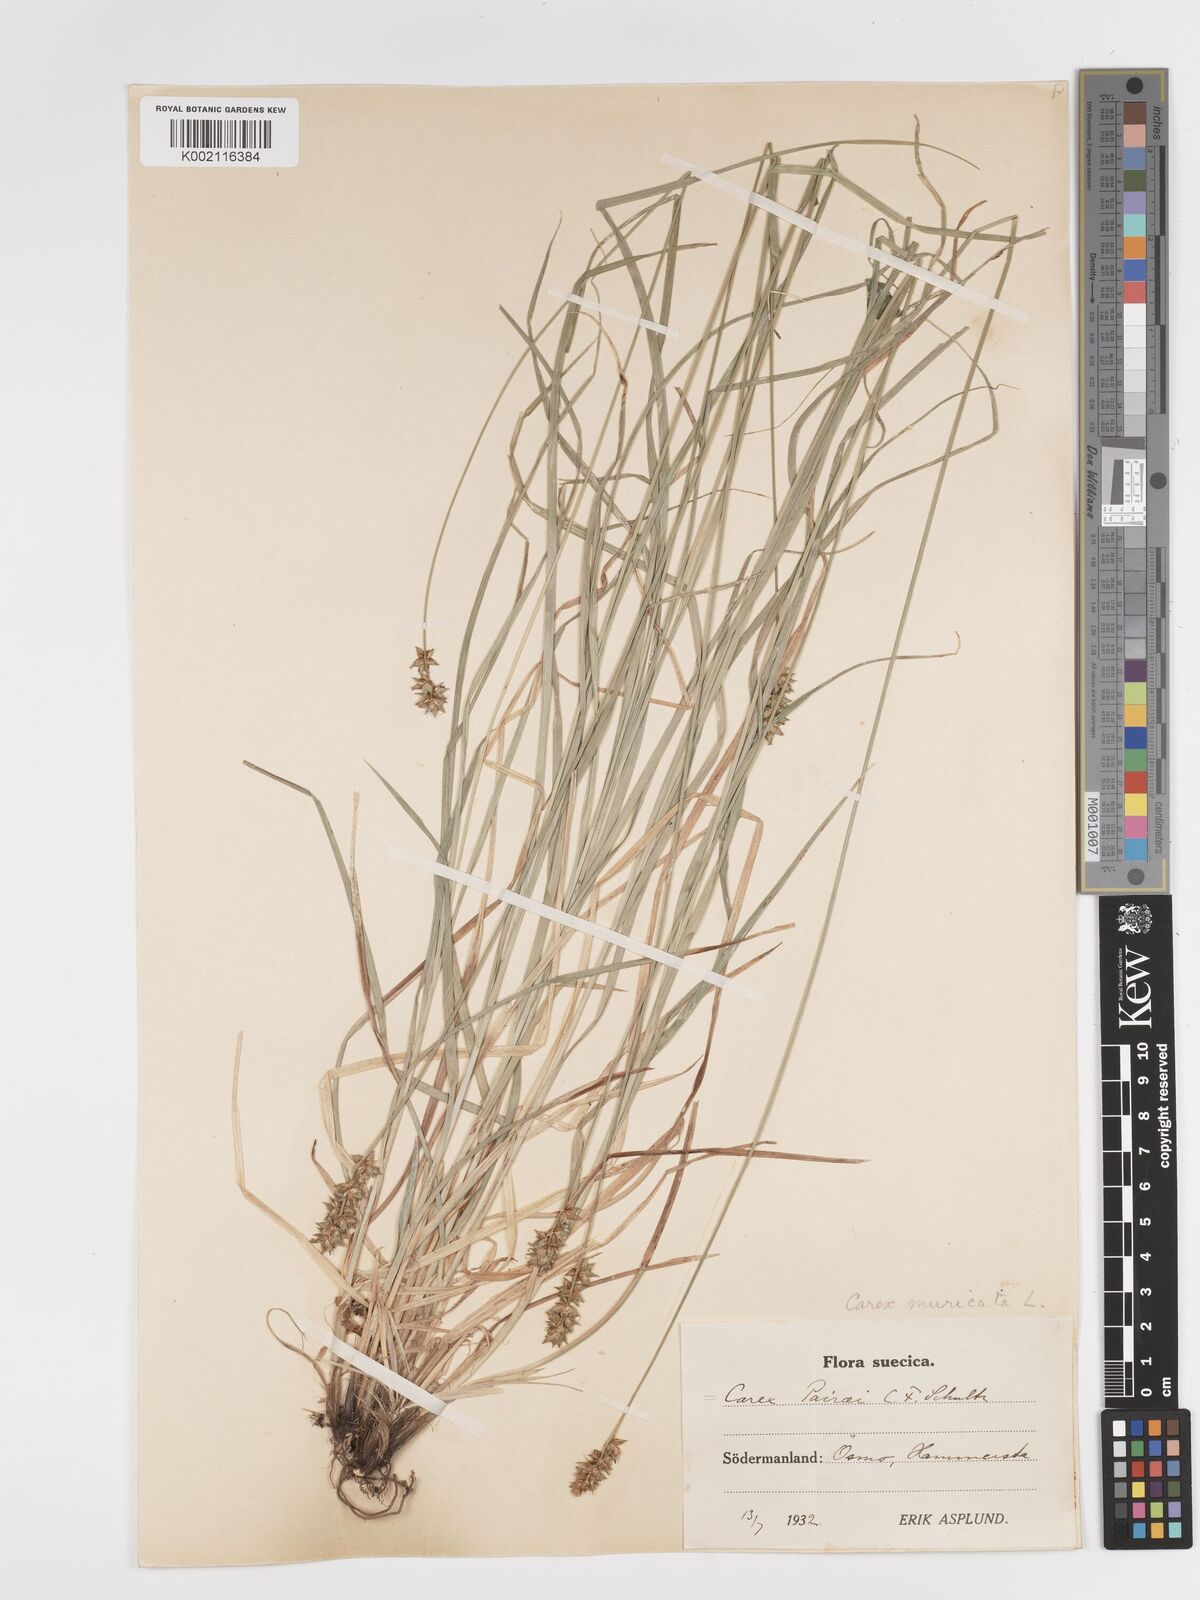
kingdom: Plantae
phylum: Tracheophyta
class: Liliopsida
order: Poales
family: Cyperaceae
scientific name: Cyperaceae
